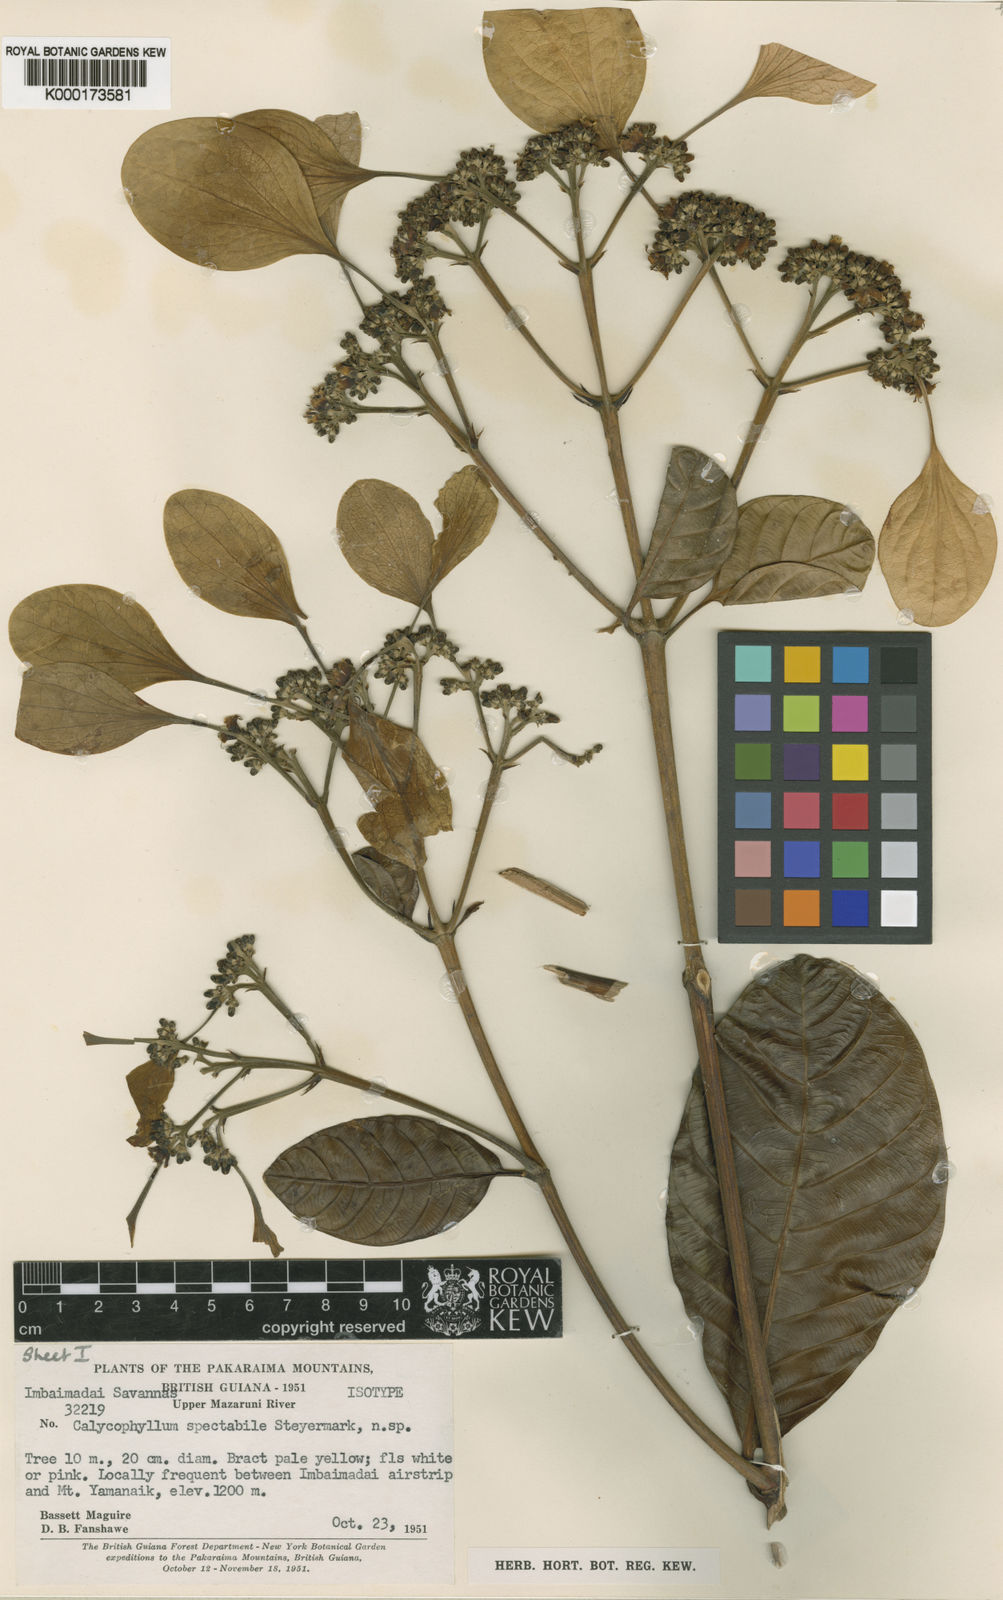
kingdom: Plantae
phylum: Tracheophyta
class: Magnoliopsida
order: Gentianales
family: Rubiaceae
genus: Calycophyllum
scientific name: Calycophyllum spectabile
